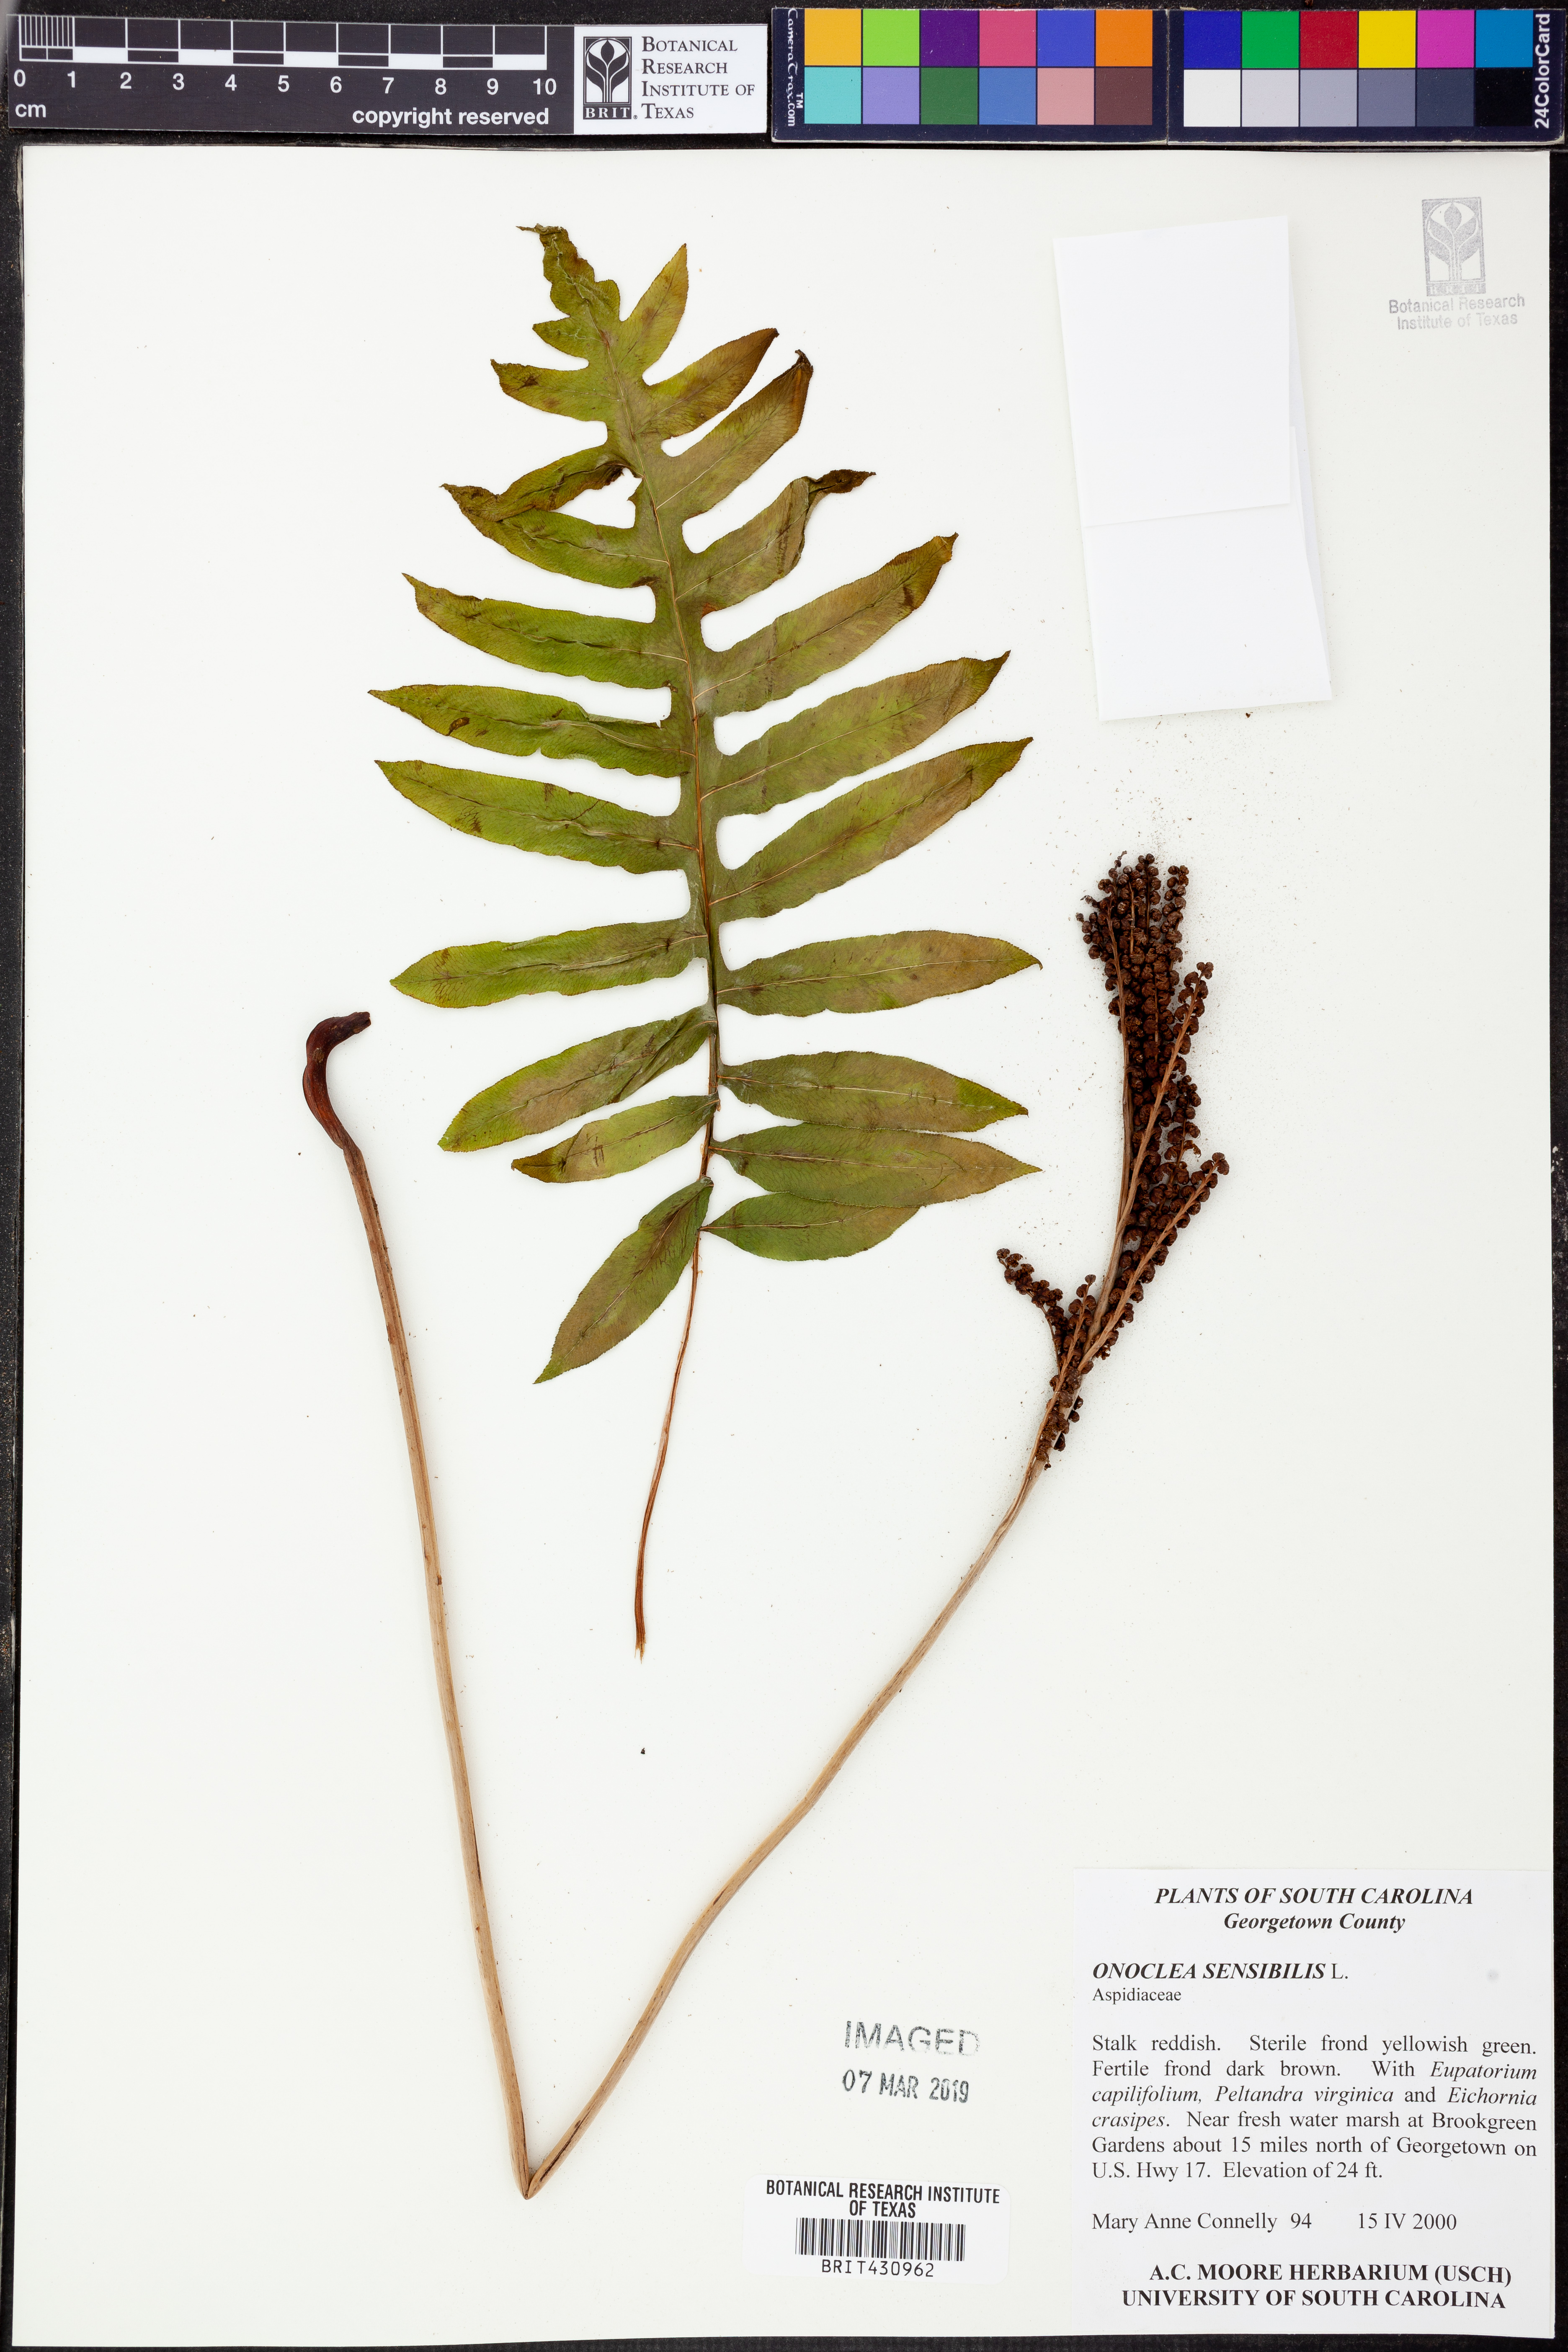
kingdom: Plantae
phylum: Tracheophyta
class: Polypodiopsida
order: Polypodiales
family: Onocleaceae
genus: Onoclea
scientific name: Onoclea sensibilis
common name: Sensitive fern
